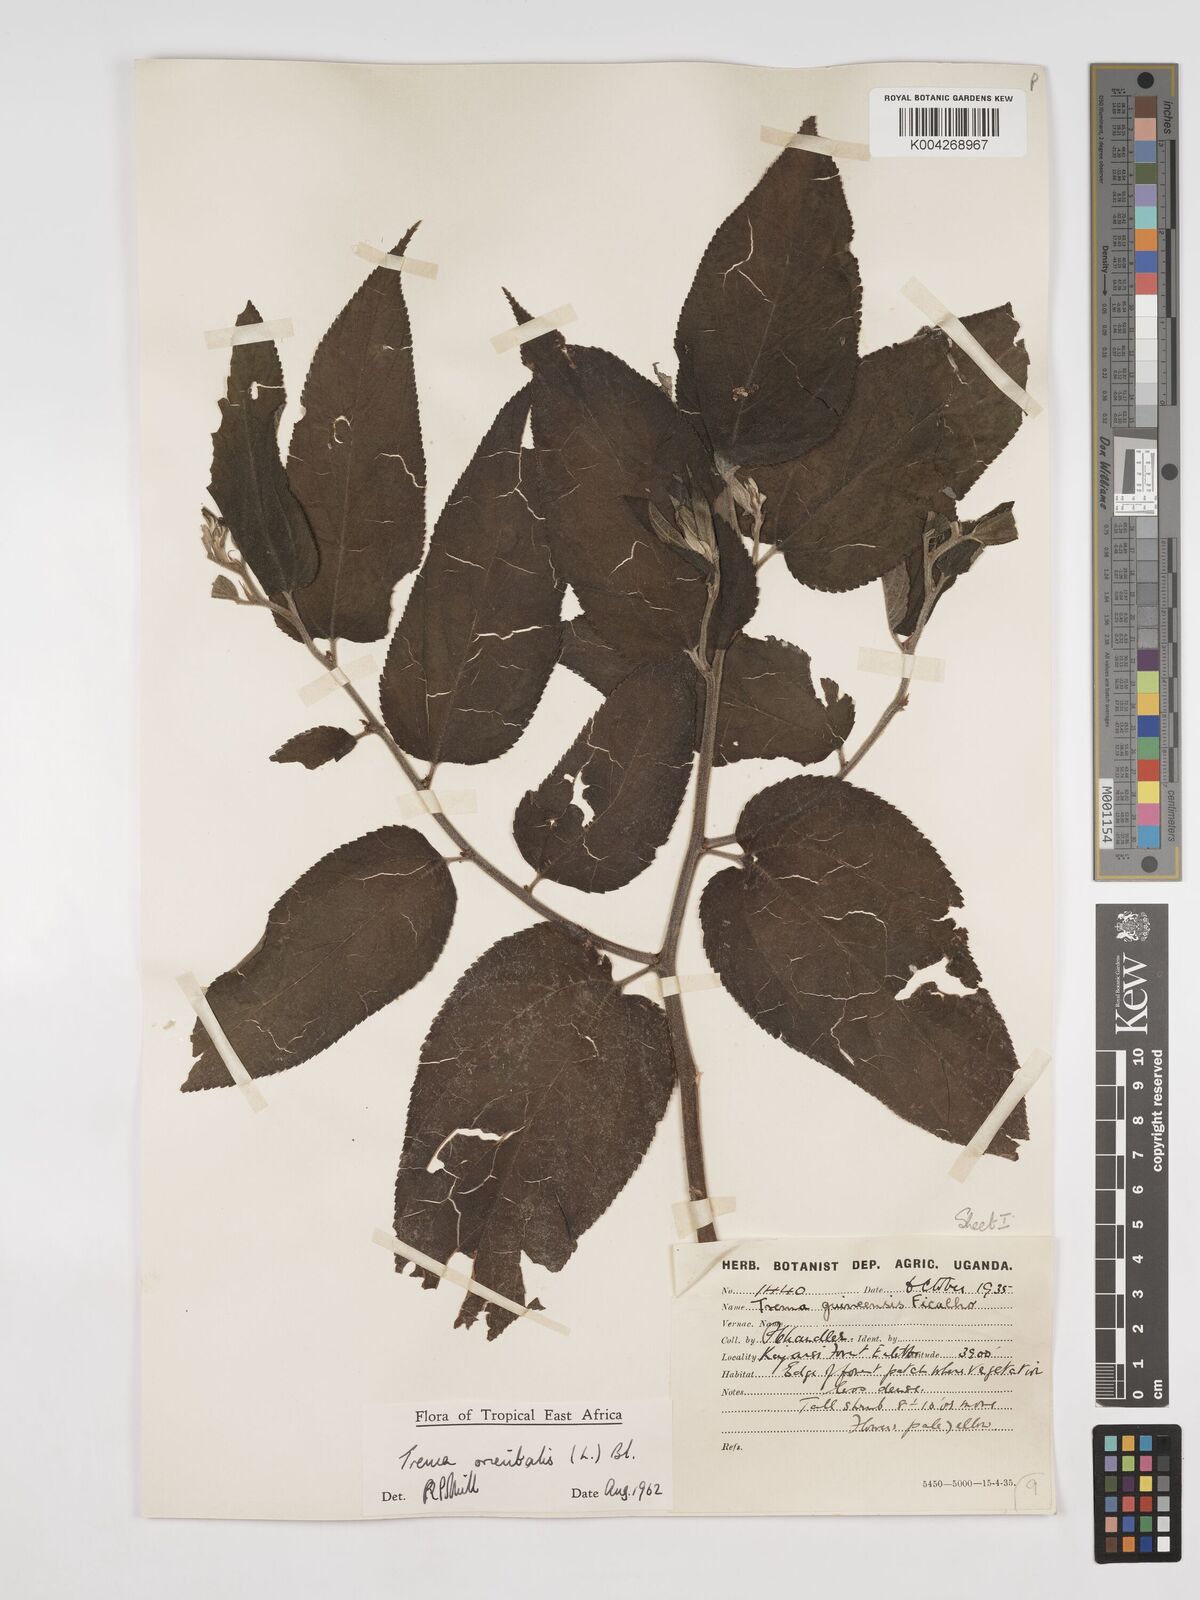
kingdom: Plantae
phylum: Tracheophyta
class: Magnoliopsida
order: Rosales
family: Cannabaceae
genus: Trema
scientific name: Trema orientale
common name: Indian charcoal tree
